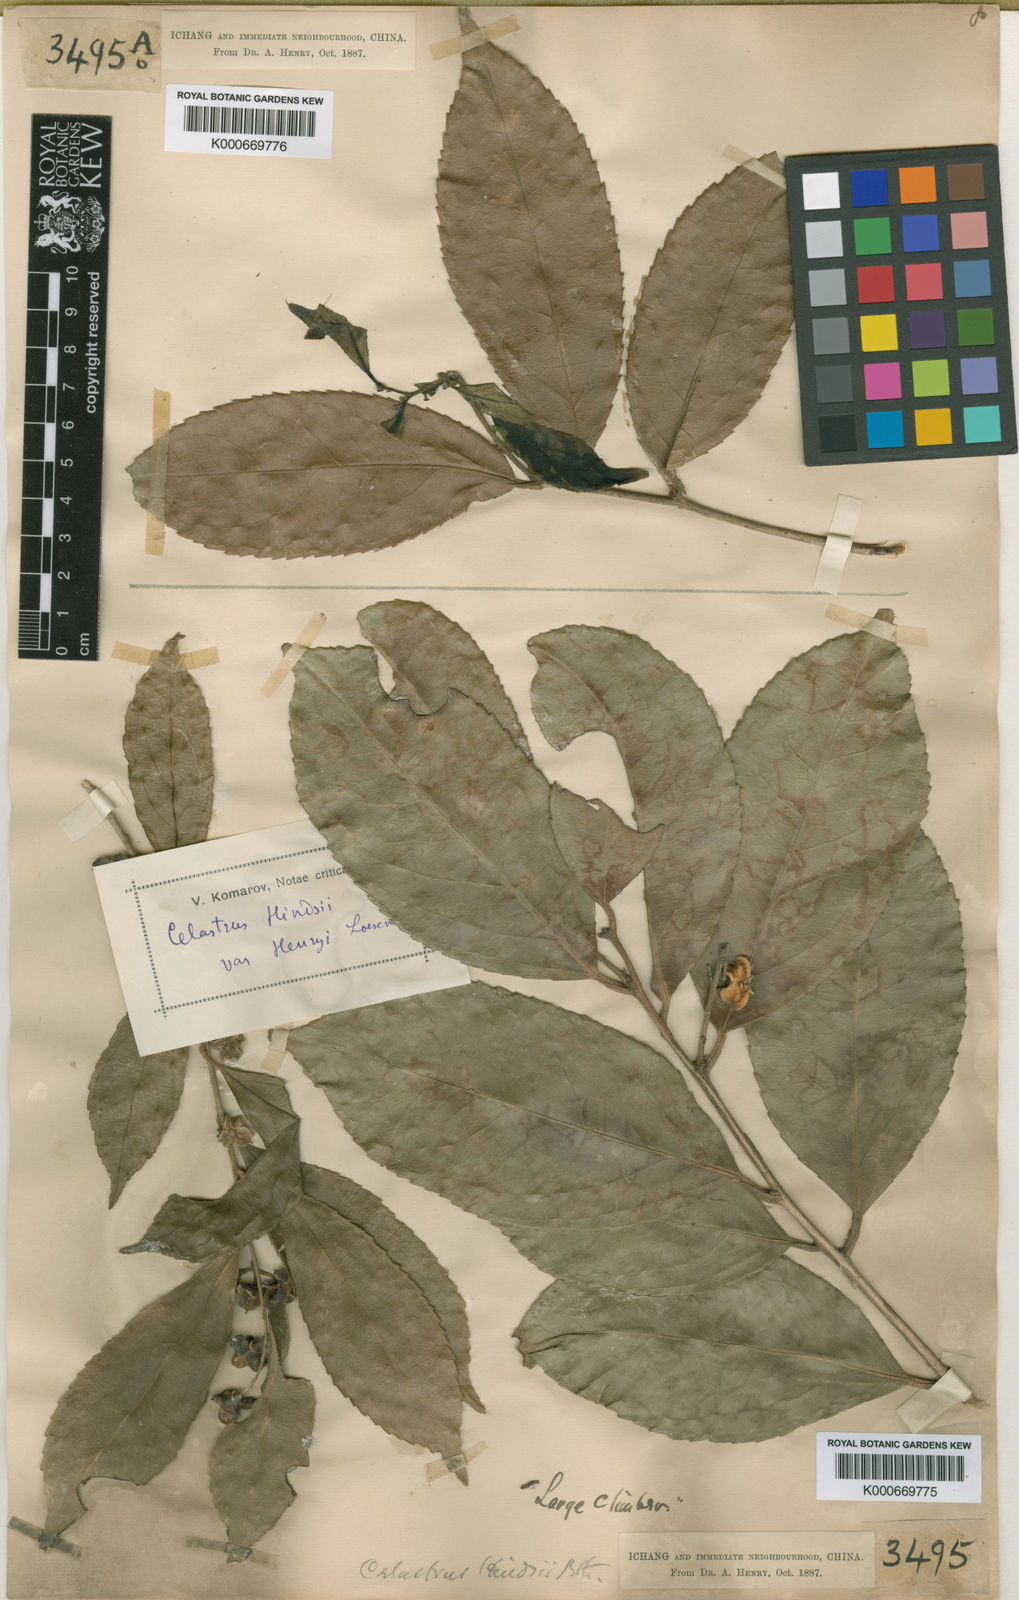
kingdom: Plantae
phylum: Tracheophyta
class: Magnoliopsida
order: Celastrales
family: Celastraceae
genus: Celastrus
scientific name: Celastrus hindsii
